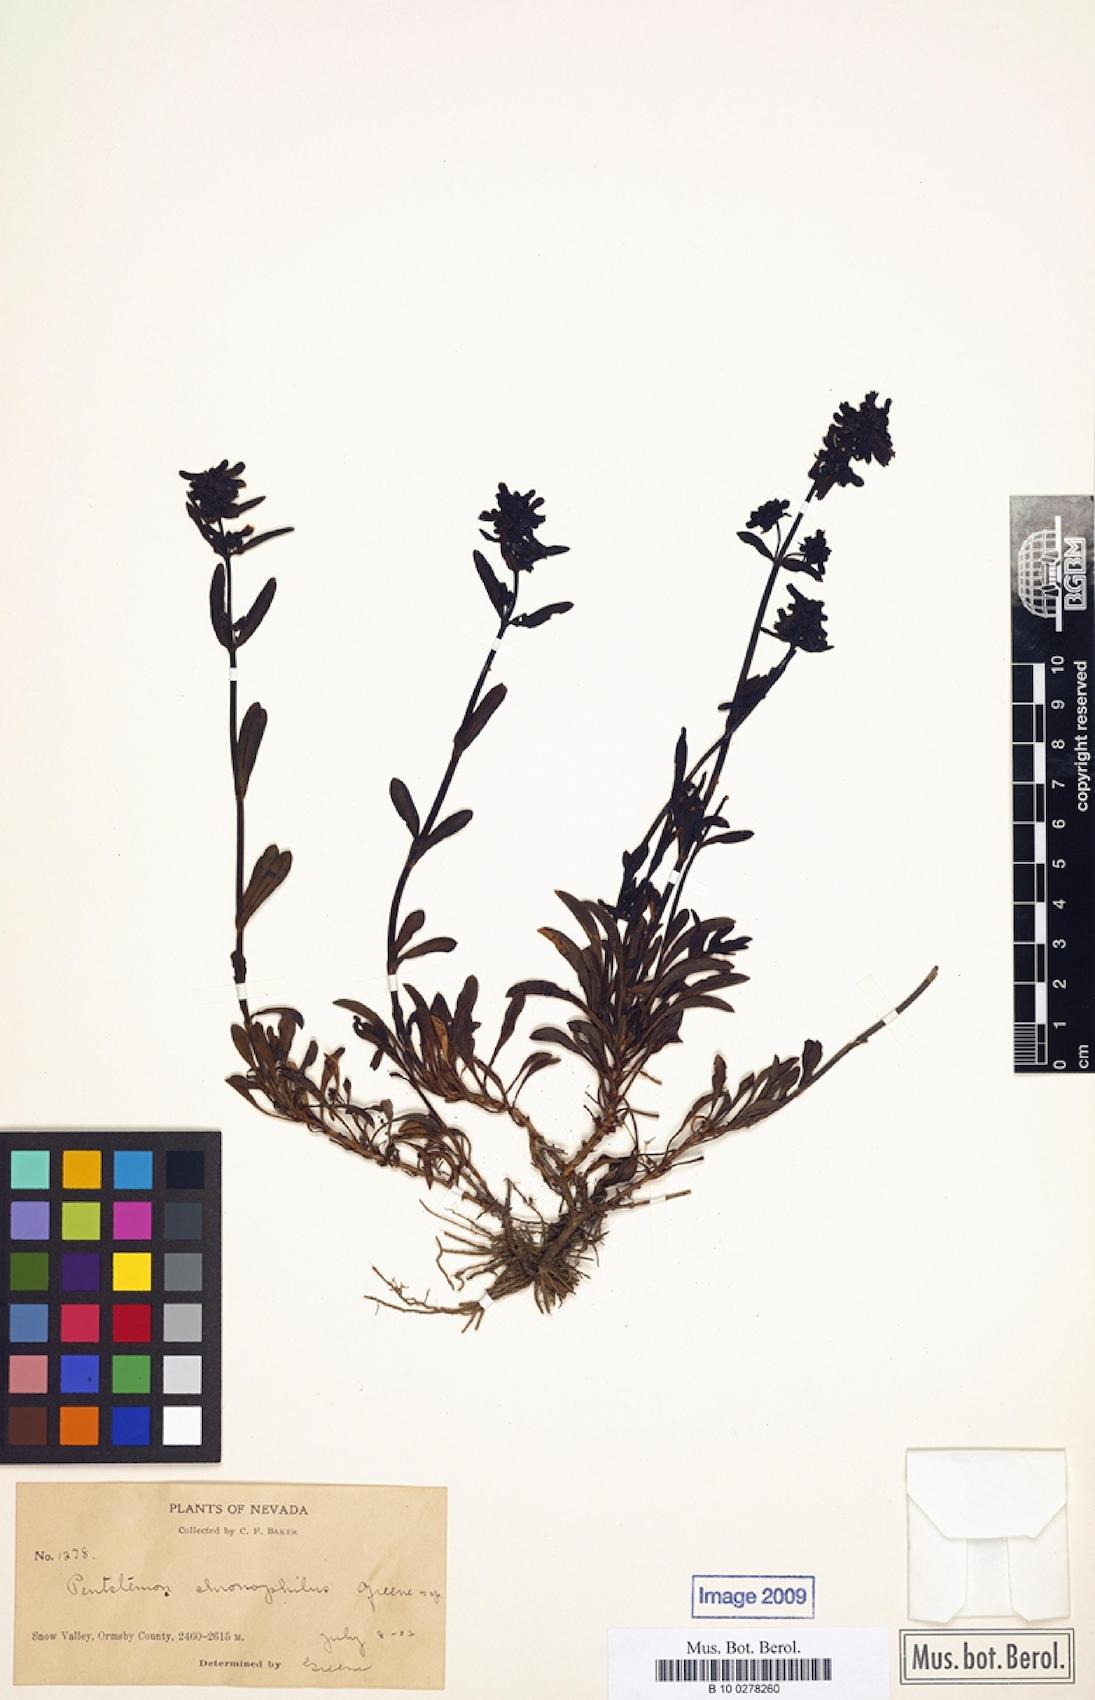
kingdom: Plantae
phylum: Tracheophyta
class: Magnoliopsida
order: Lamiales
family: Plantaginaceae
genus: Penstemon
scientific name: Penstemon chionophilus
